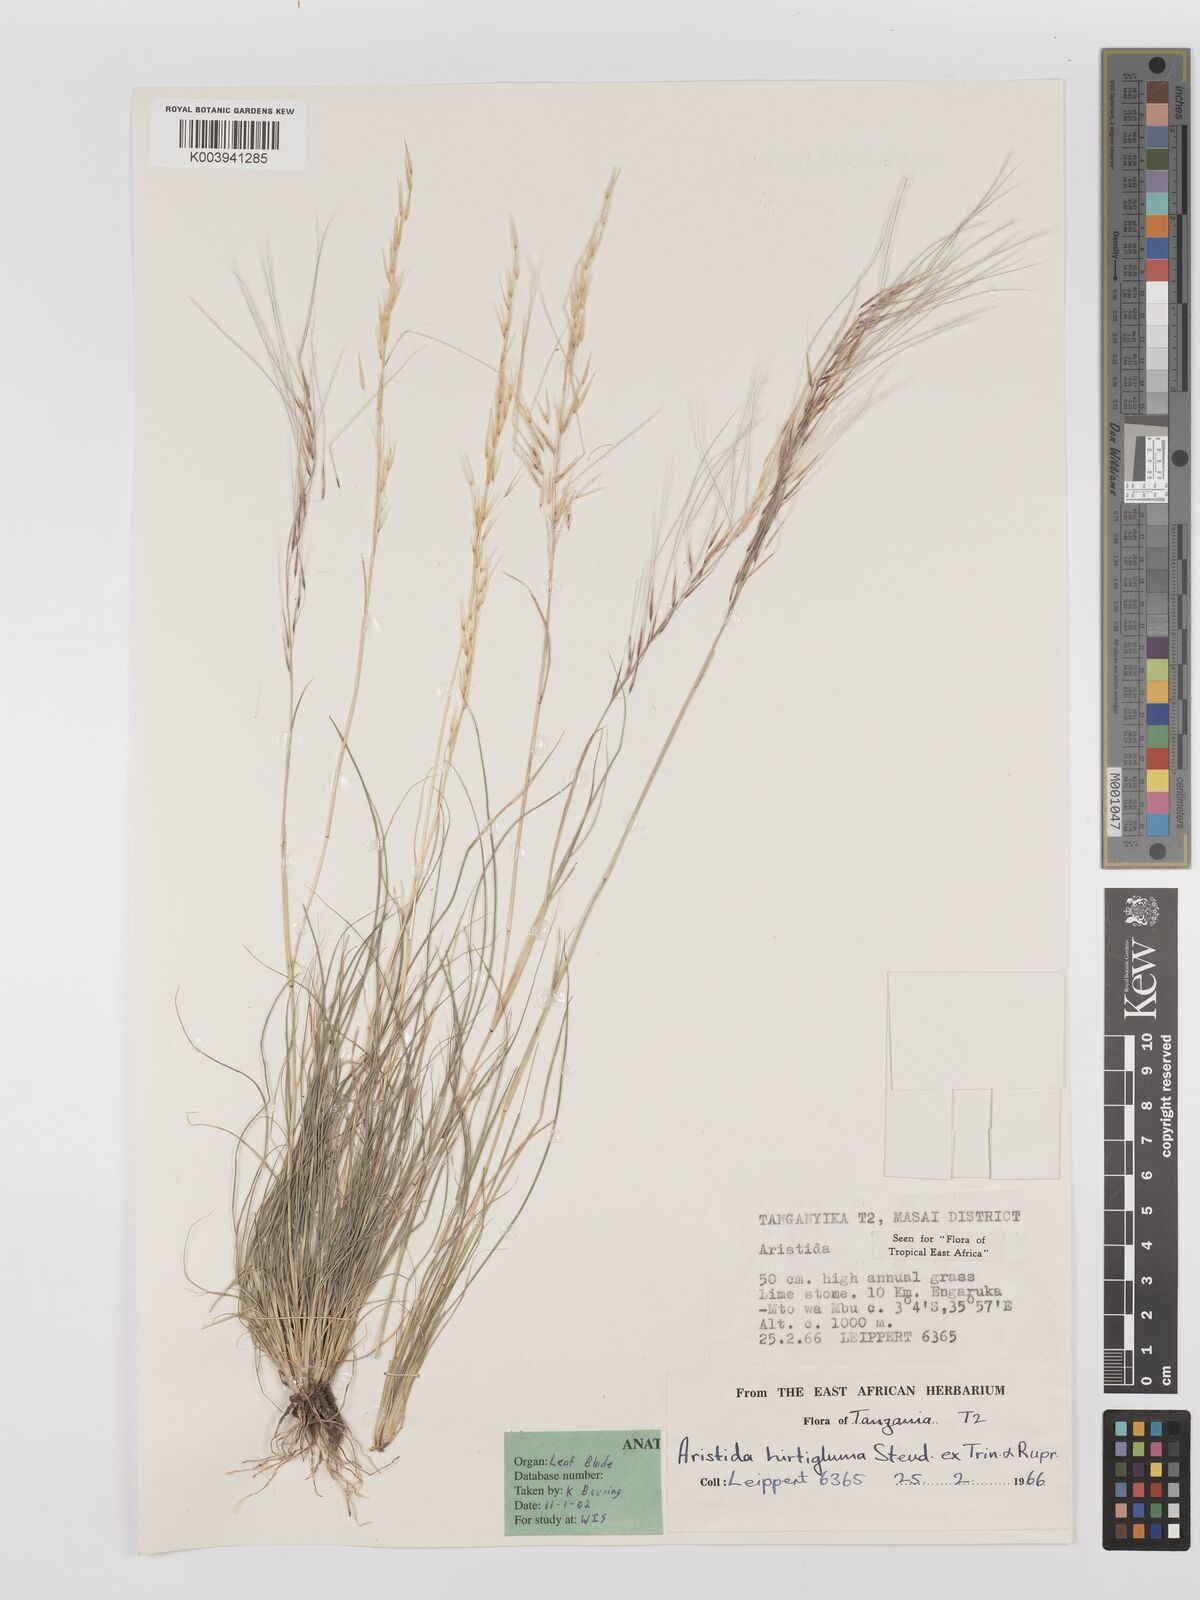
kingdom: Plantae
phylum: Tracheophyta
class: Liliopsida
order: Poales
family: Poaceae
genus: Stipagrostis
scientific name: Stipagrostis hirtigluma
